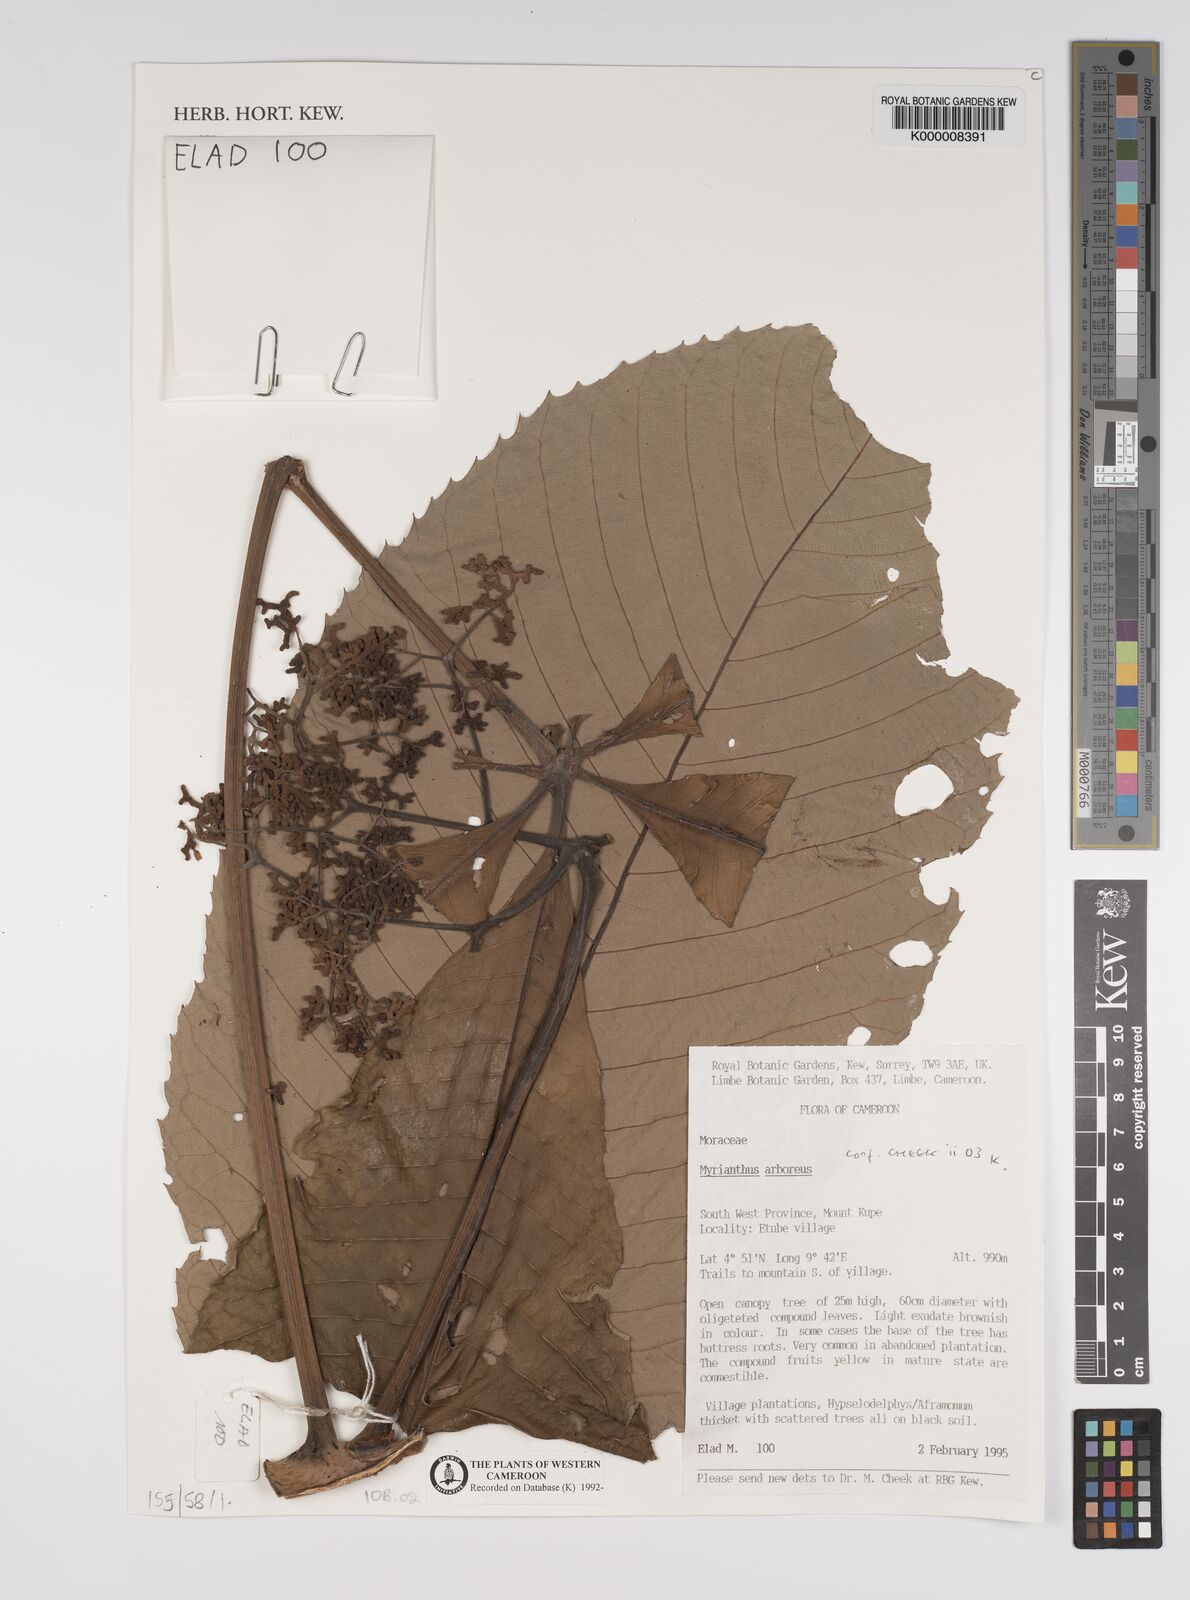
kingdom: Plantae
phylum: Tracheophyta
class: Magnoliopsida
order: Rosales
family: Urticaceae
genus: Myrianthus
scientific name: Myrianthus arboreus
